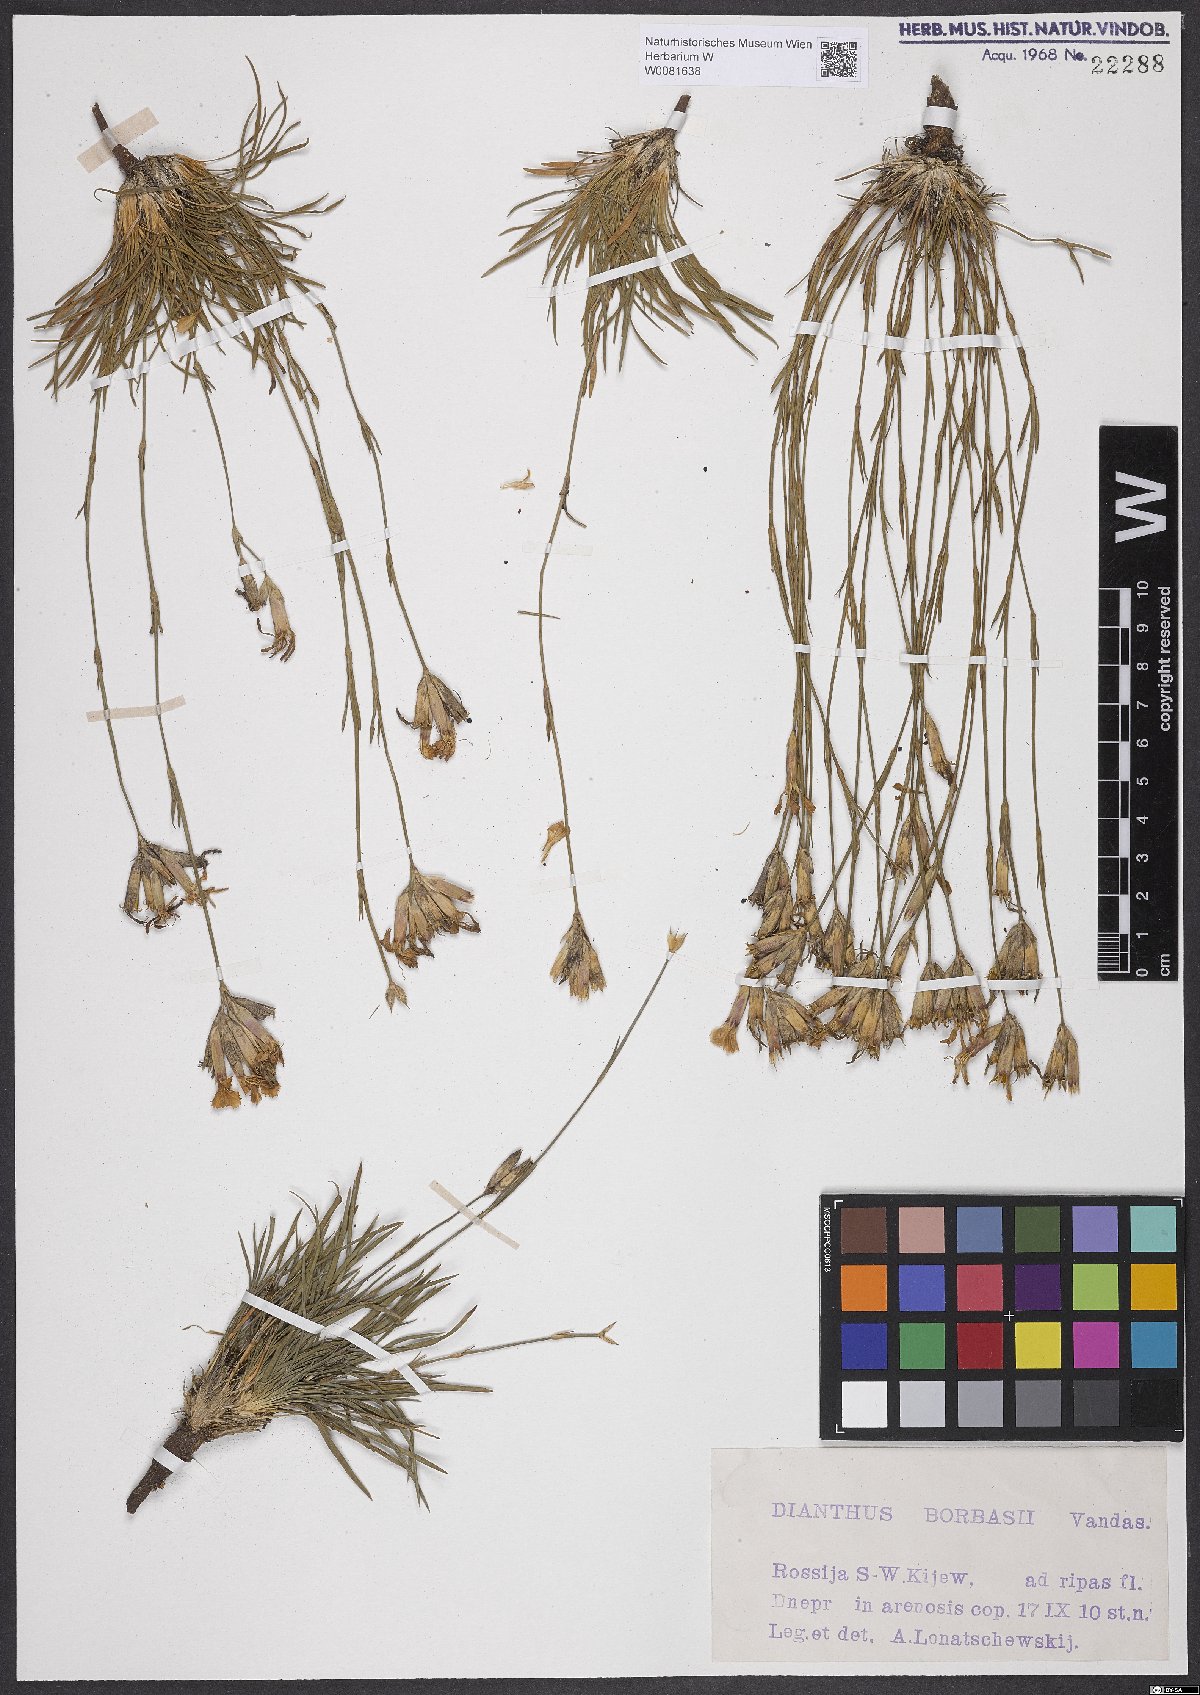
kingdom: Plantae
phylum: Tracheophyta
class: Magnoliopsida
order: Caryophyllales
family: Caryophyllaceae
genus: Dianthus
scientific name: Dianthus borbasii
